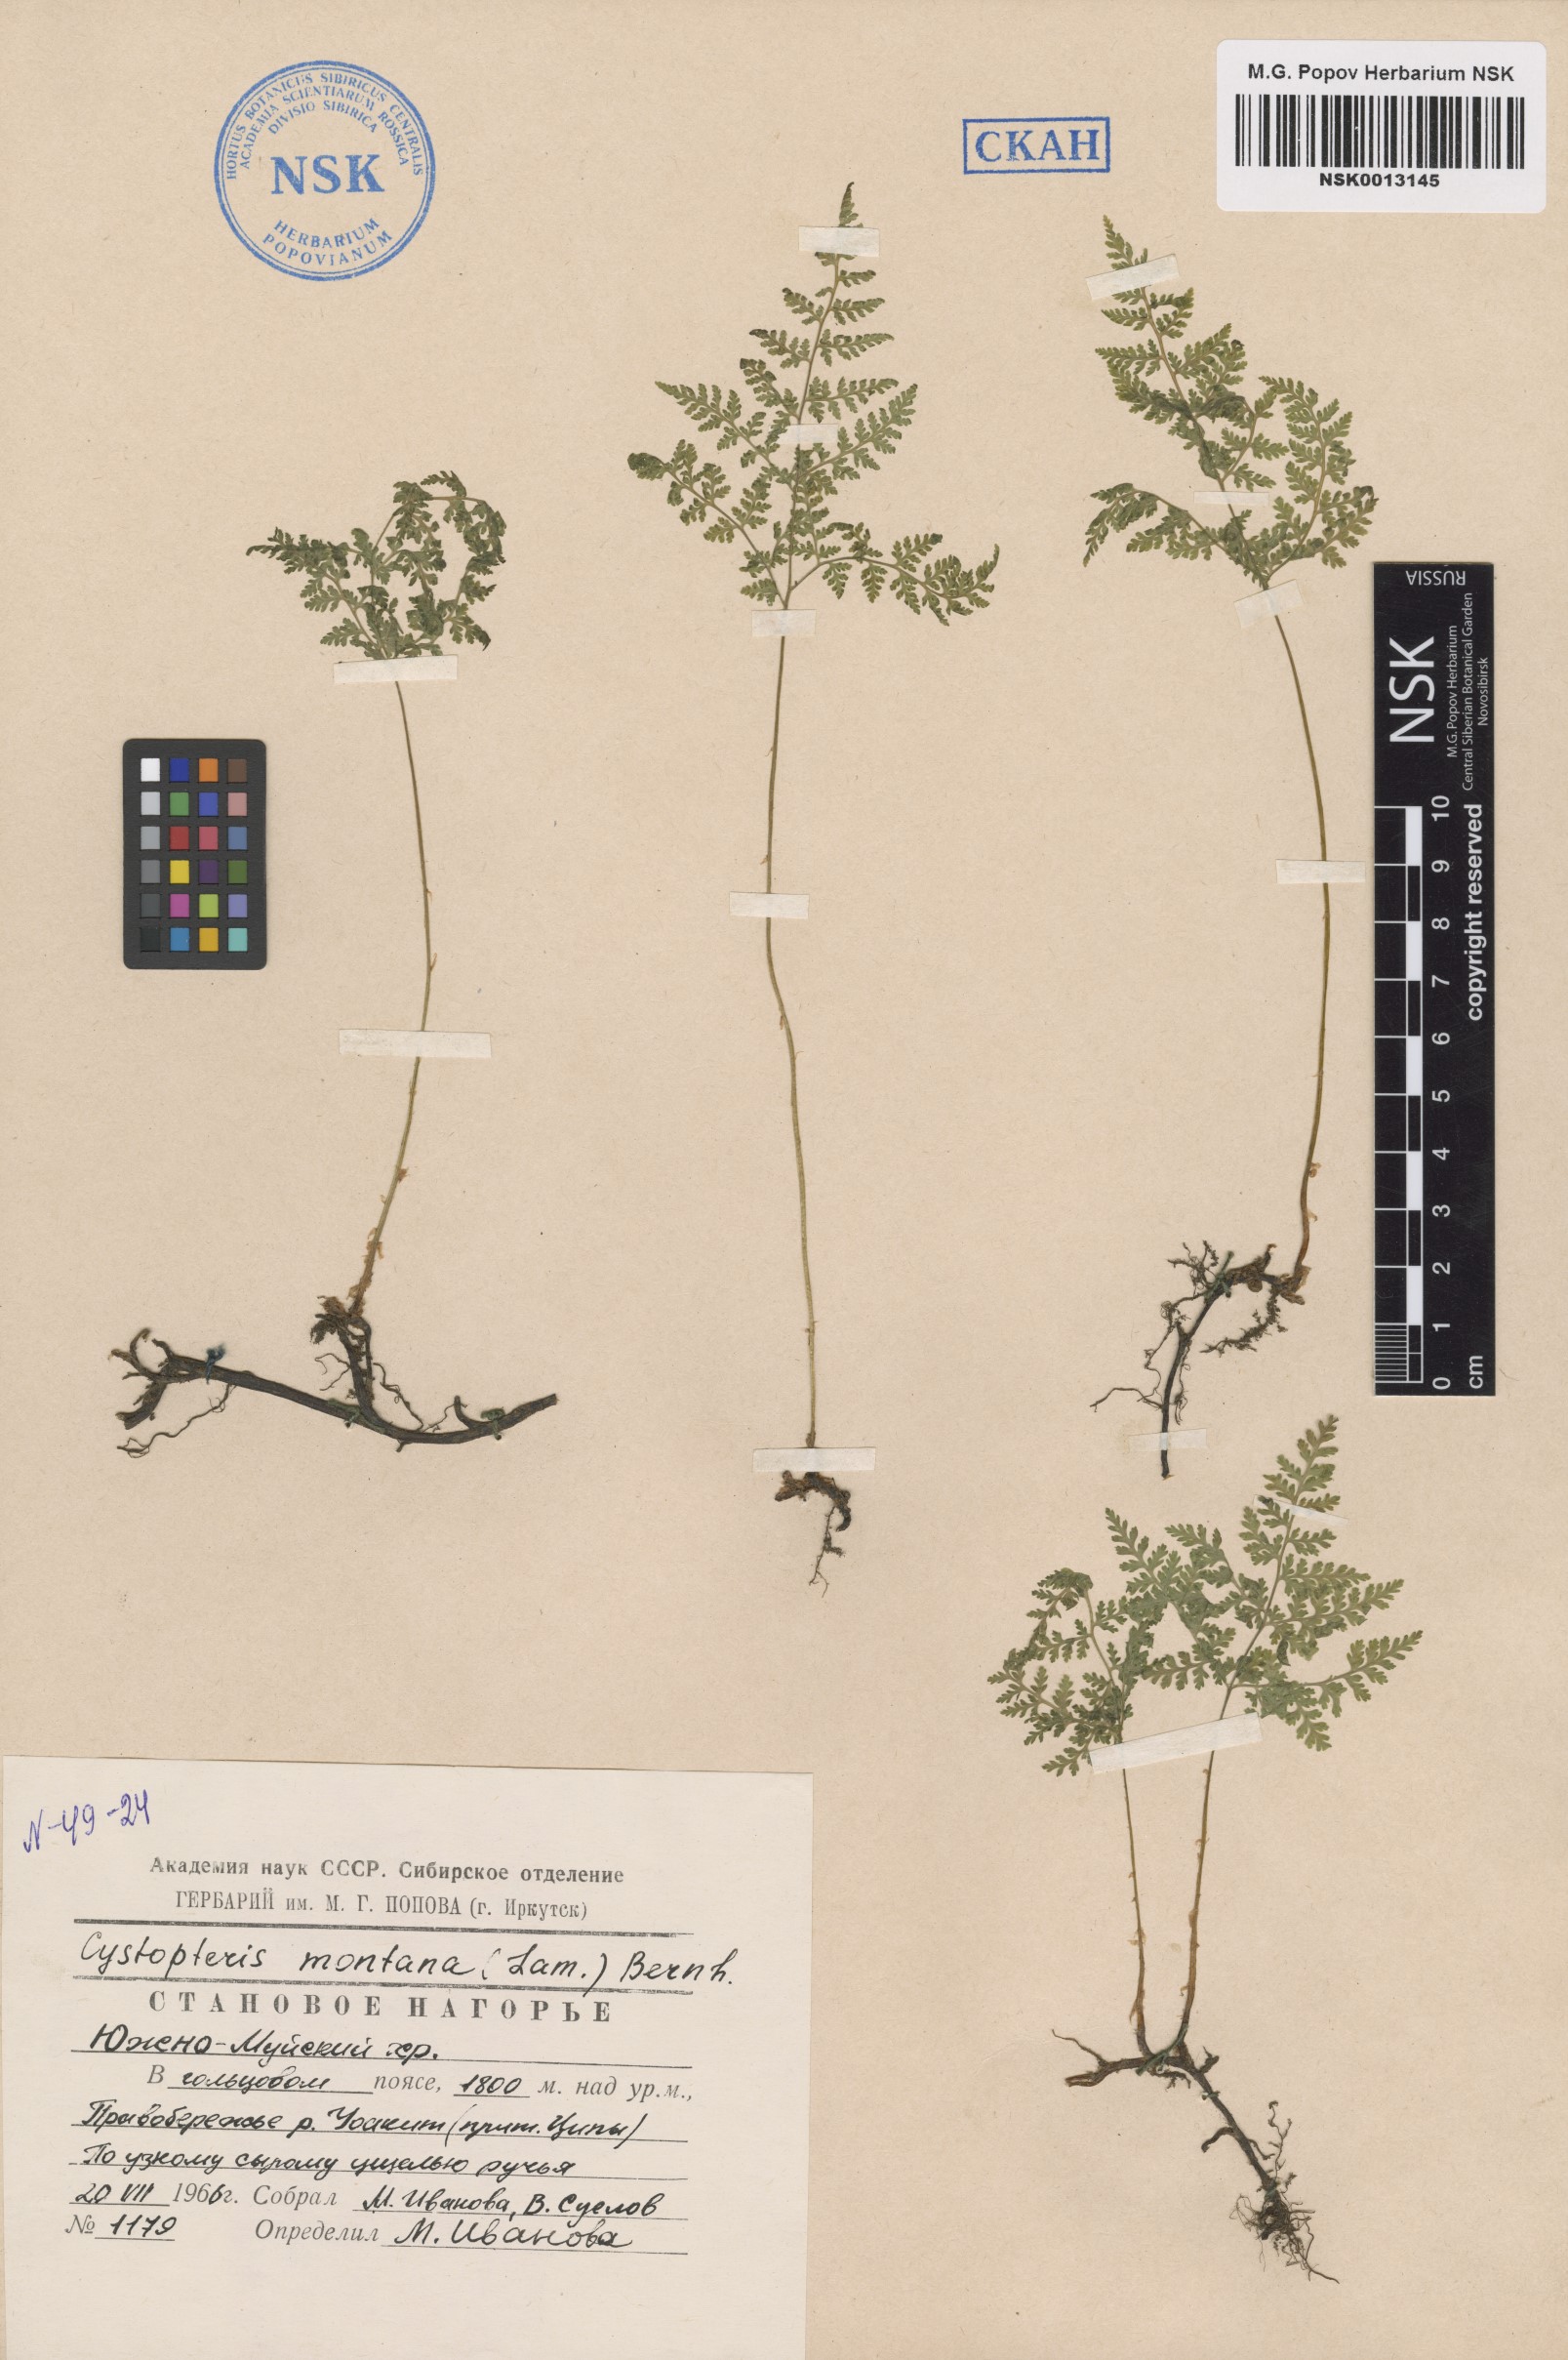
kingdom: Plantae
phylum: Tracheophyta
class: Polypodiopsida
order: Polypodiales
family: Cystopteridaceae
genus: Cystopteris
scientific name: Cystopteris montana
